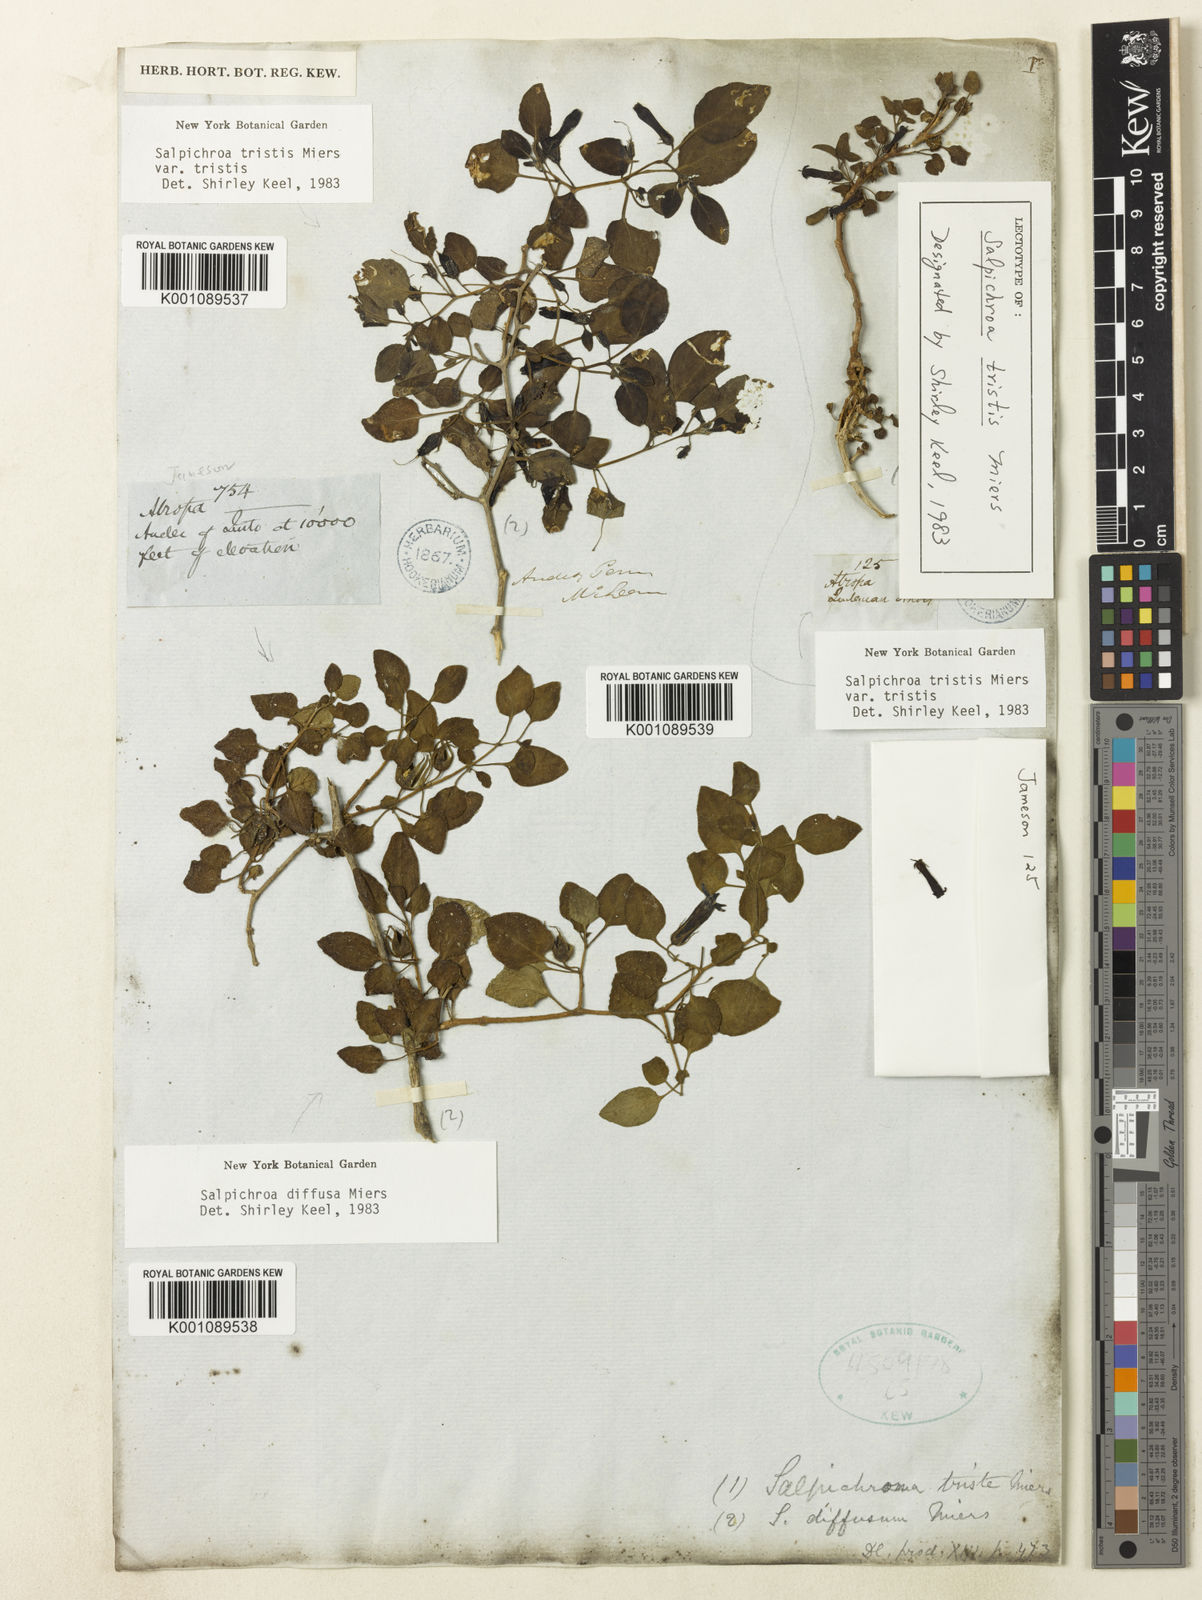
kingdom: Plantae
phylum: Tracheophyta
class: Magnoliopsida
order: Solanales
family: Solanaceae
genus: Salpichroa
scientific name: Salpichroa
